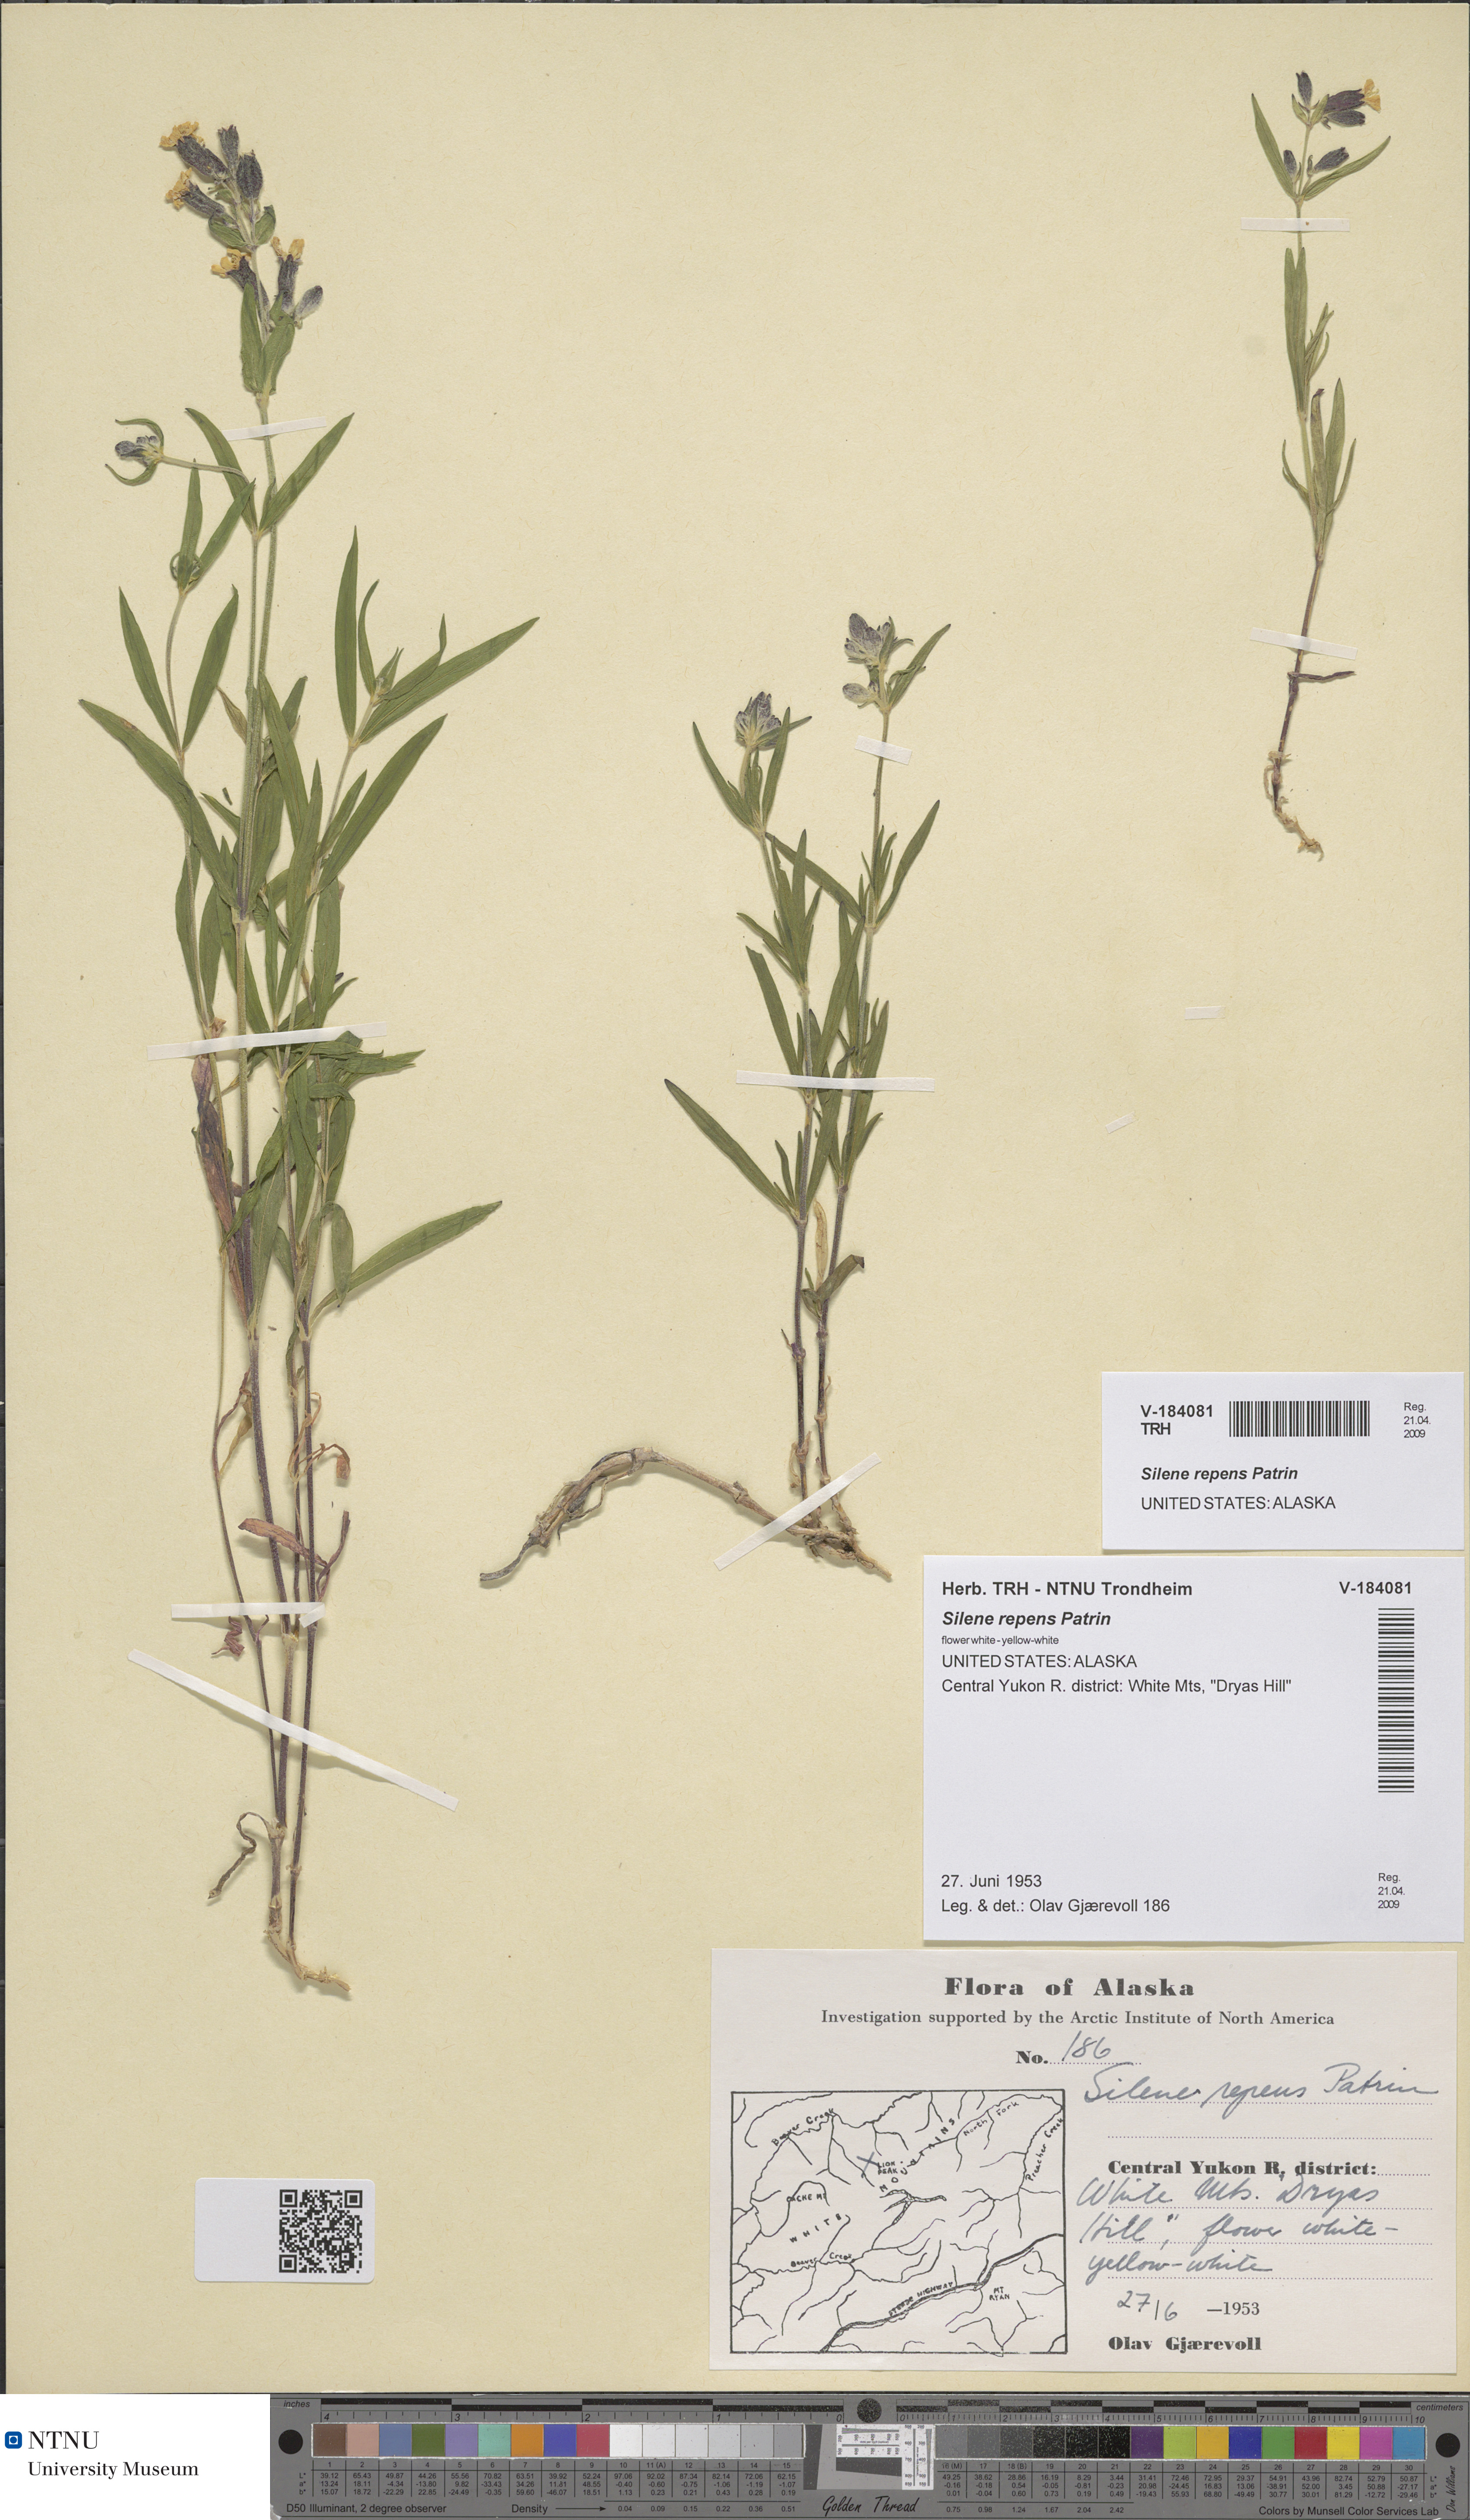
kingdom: Plantae
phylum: Tracheophyta
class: Magnoliopsida
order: Caryophyllales
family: Caryophyllaceae
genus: Silene
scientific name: Silene repens
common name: Pink campion
